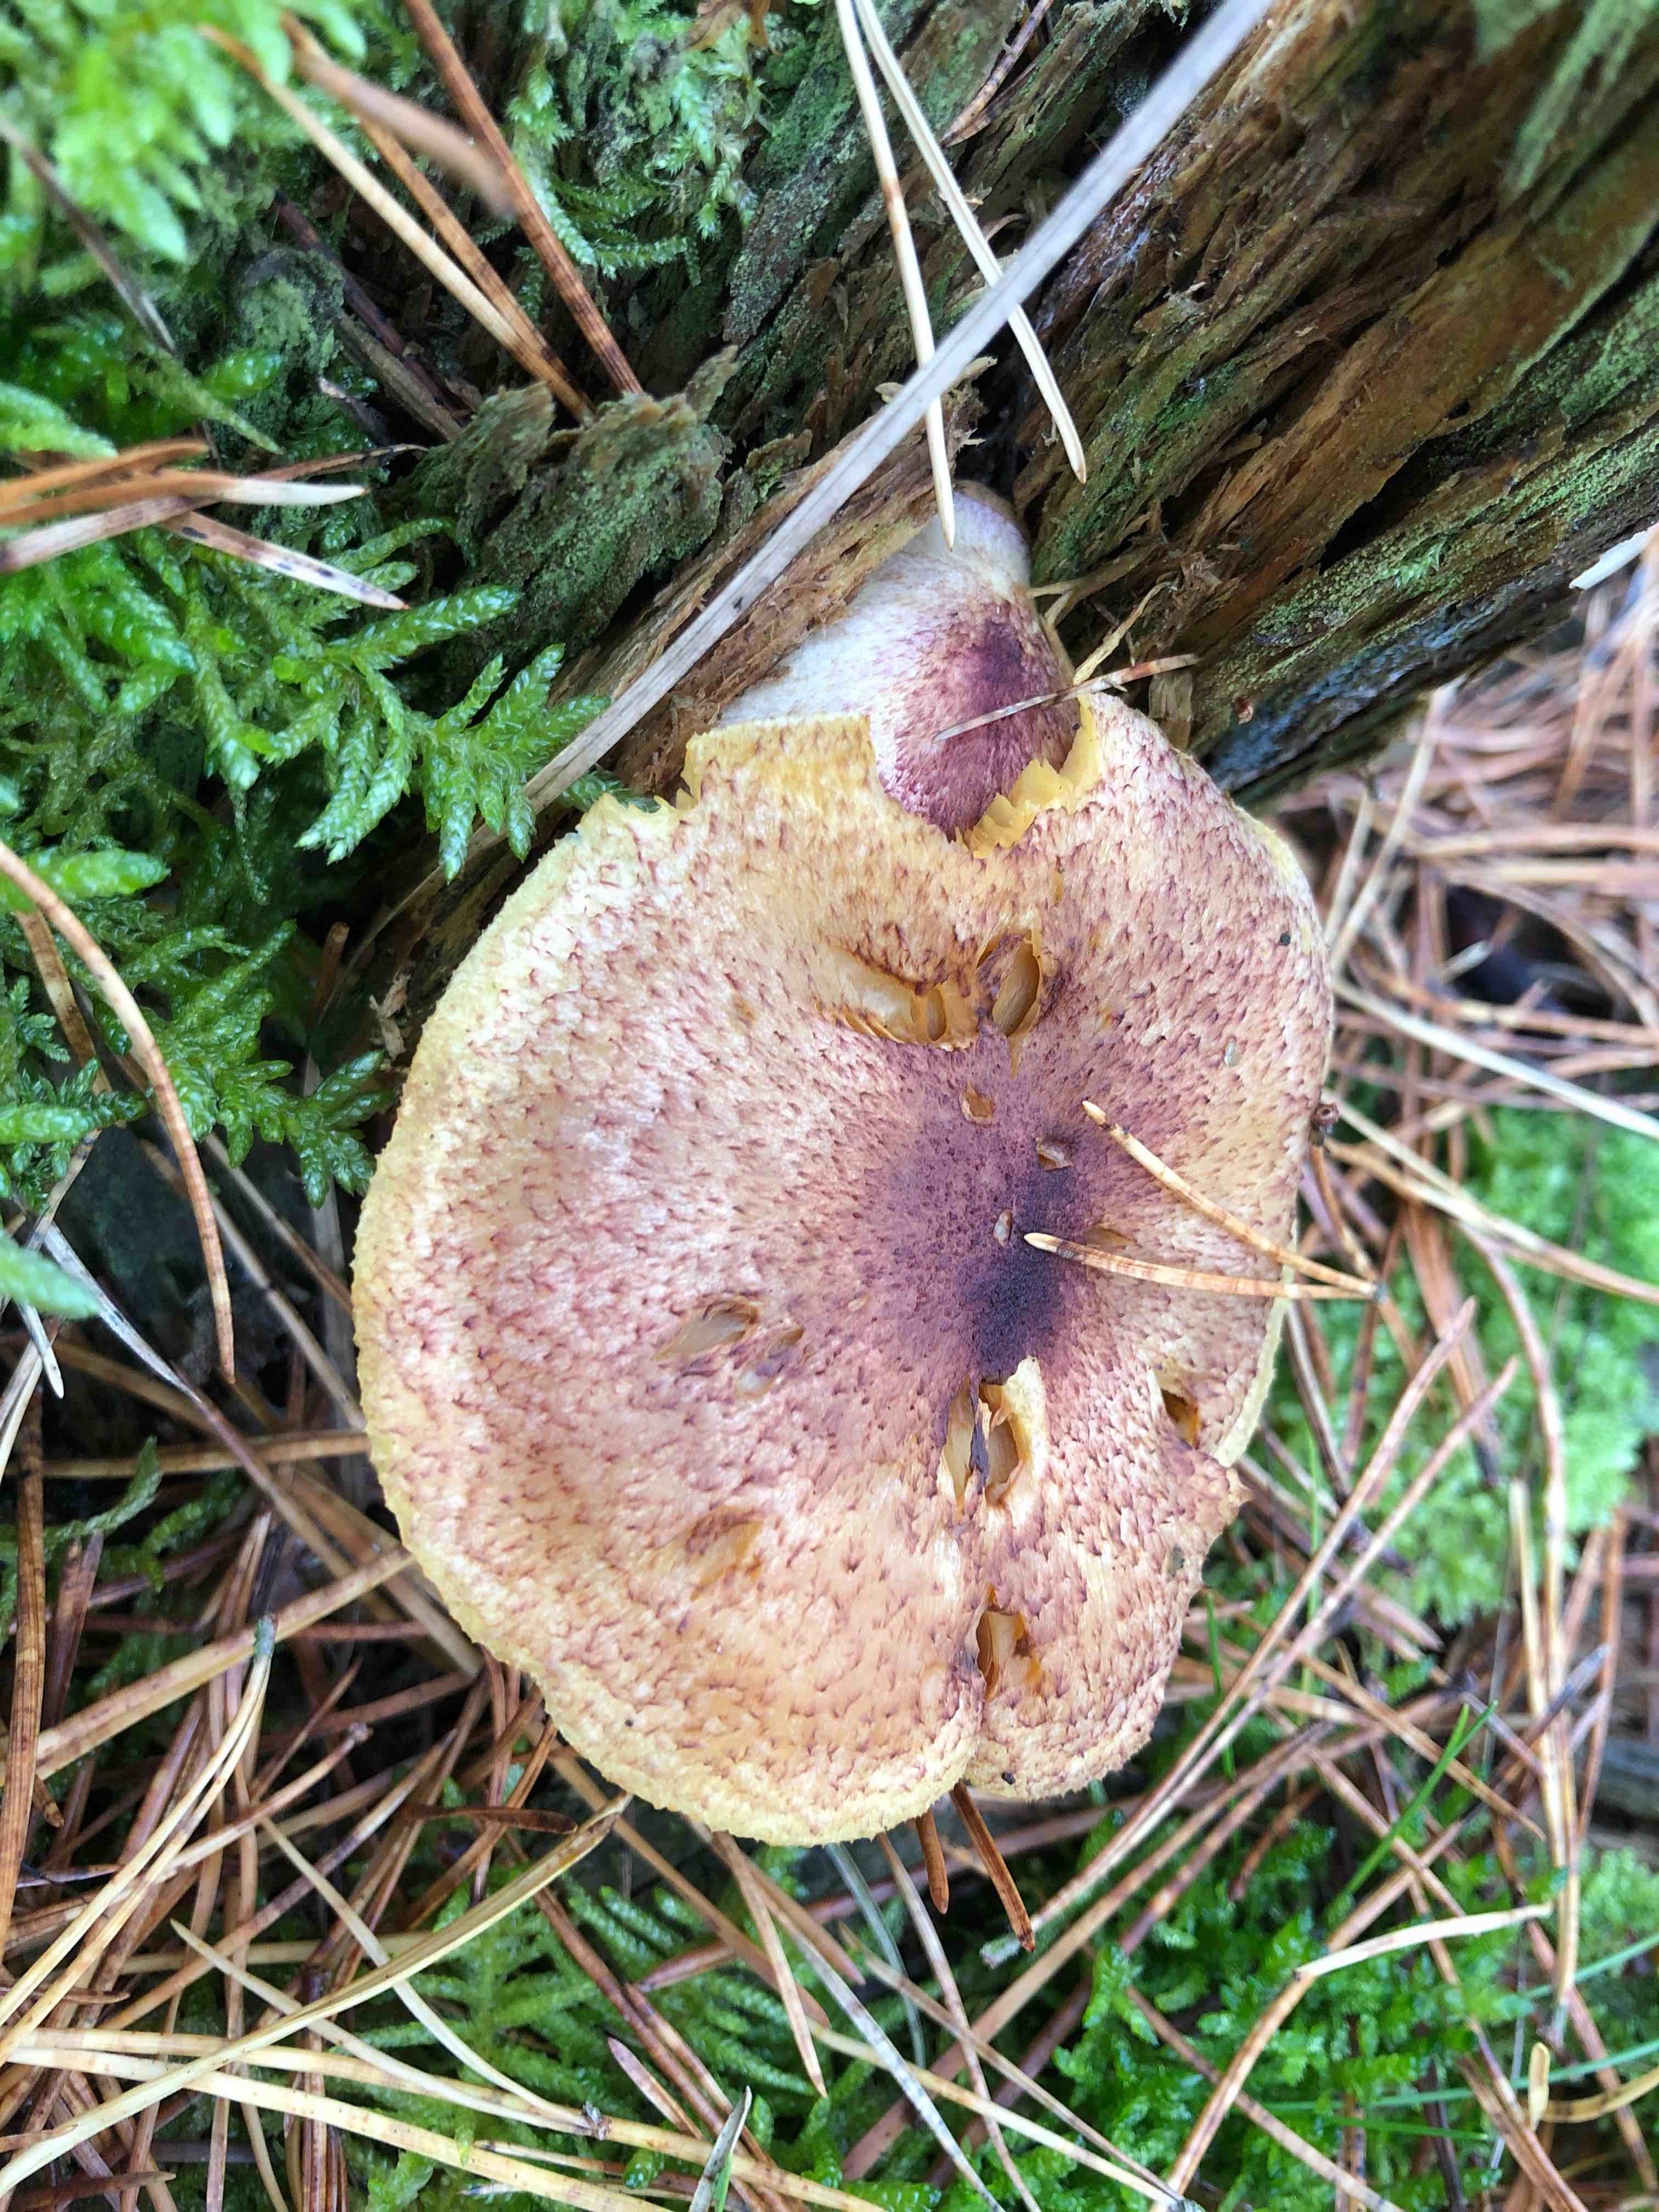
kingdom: Fungi
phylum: Basidiomycota
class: Agaricomycetes
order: Agaricales
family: Tricholomataceae
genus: Tricholomopsis
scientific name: Tricholomopsis rutilans
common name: purpur-væbnerhat
